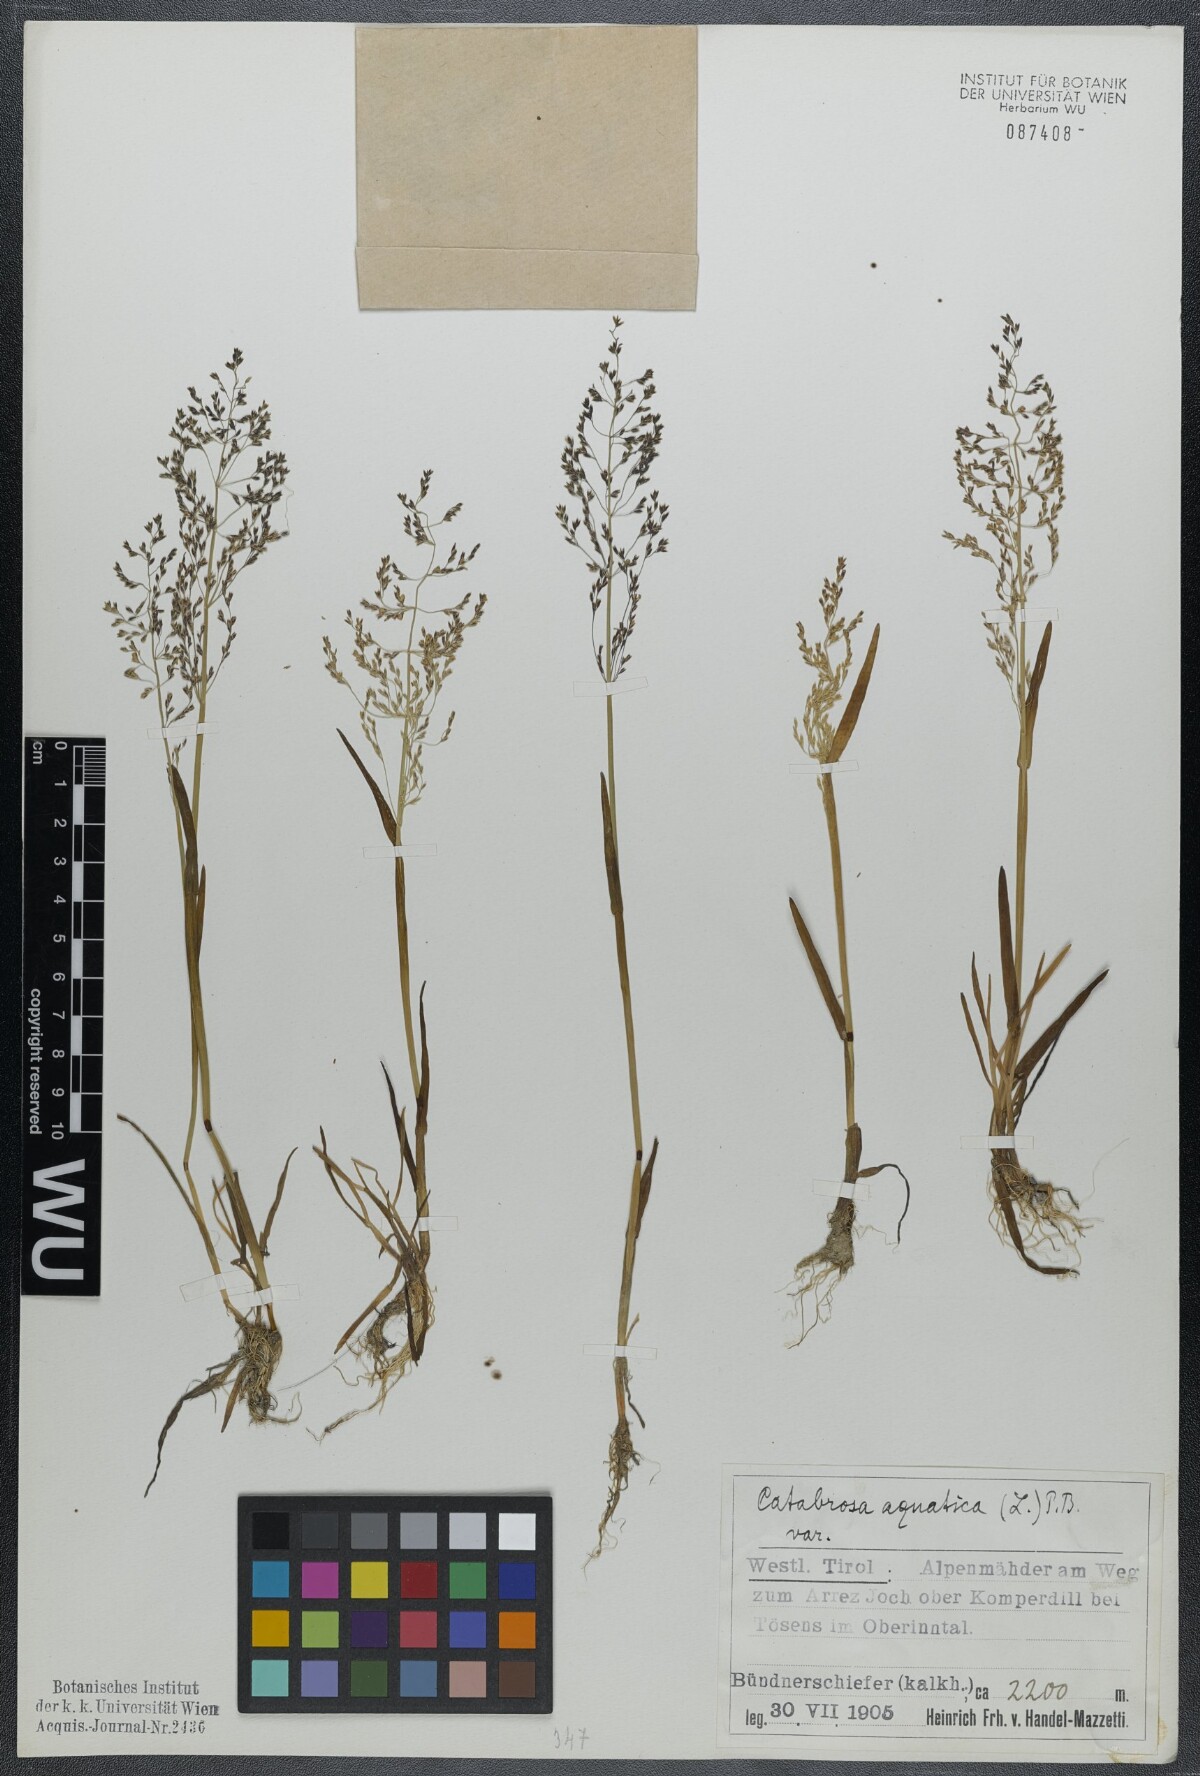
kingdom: Plantae
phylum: Tracheophyta
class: Liliopsida
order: Poales
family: Poaceae
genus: Catabrosa
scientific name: Catabrosa aquatica
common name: Whorl-grass
